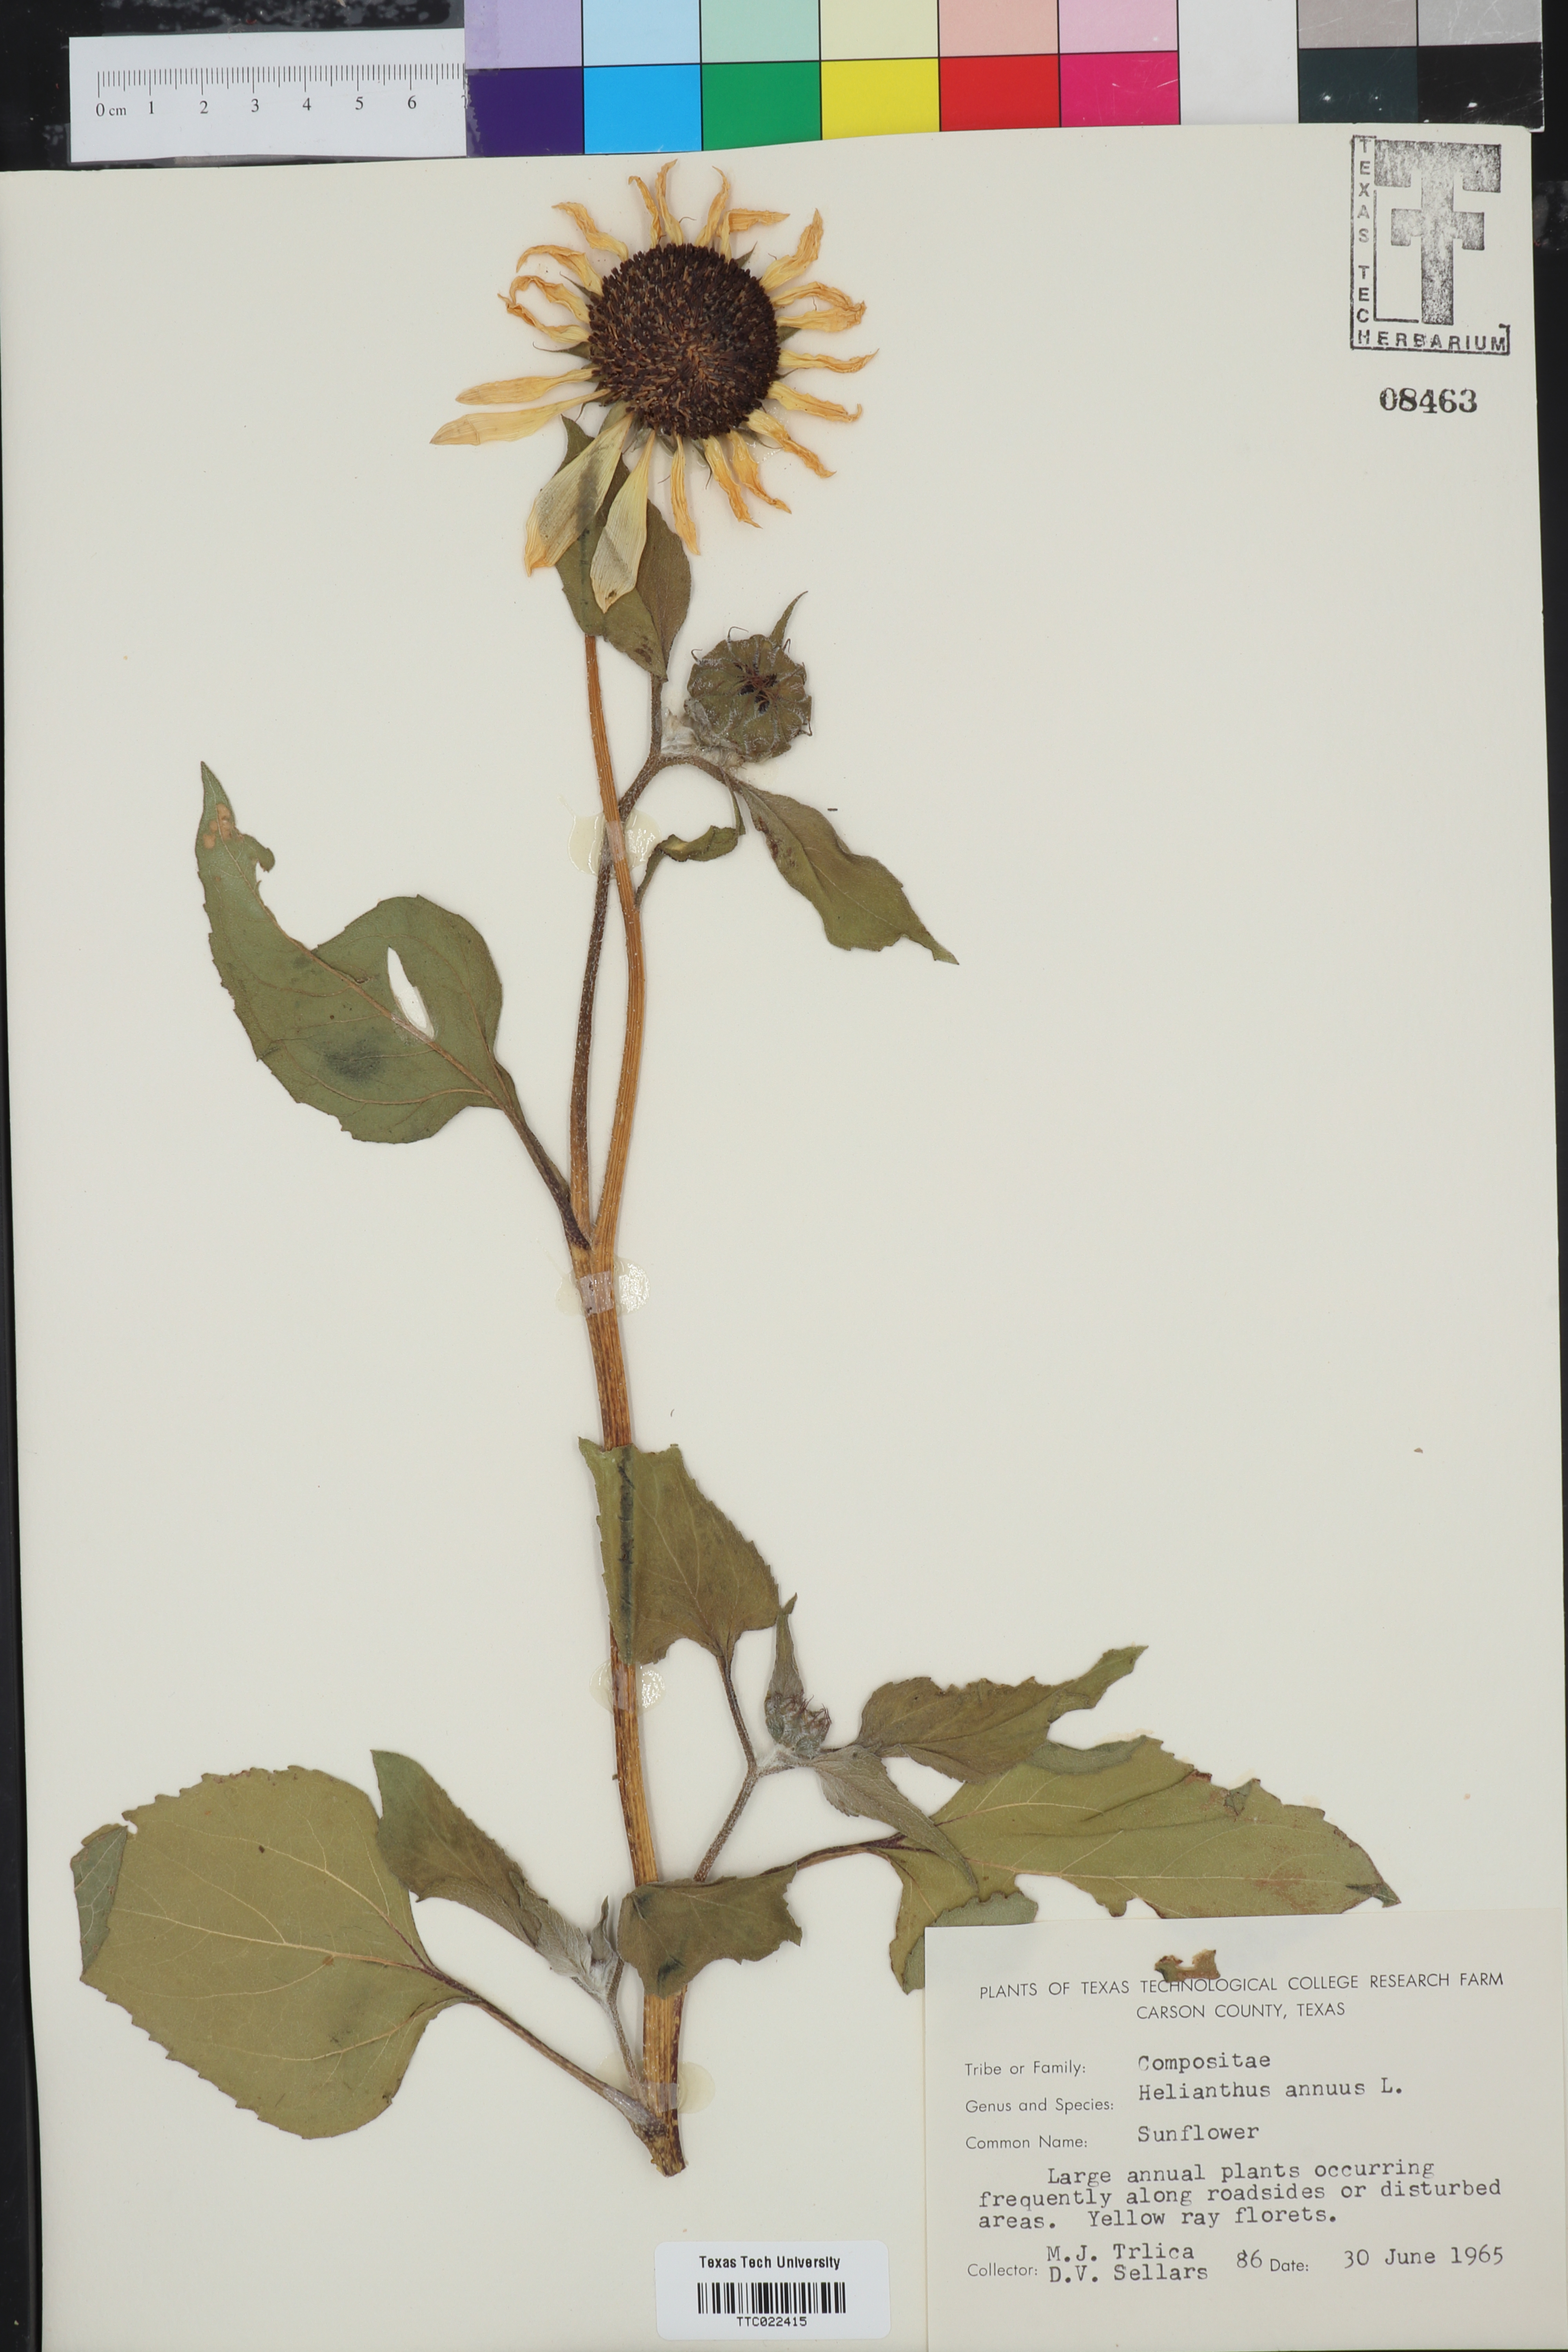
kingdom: Plantae
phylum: Tracheophyta
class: Magnoliopsida
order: Asterales
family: Asteraceae
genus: Helianthus
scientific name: Helianthus annuus
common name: Sunflower
